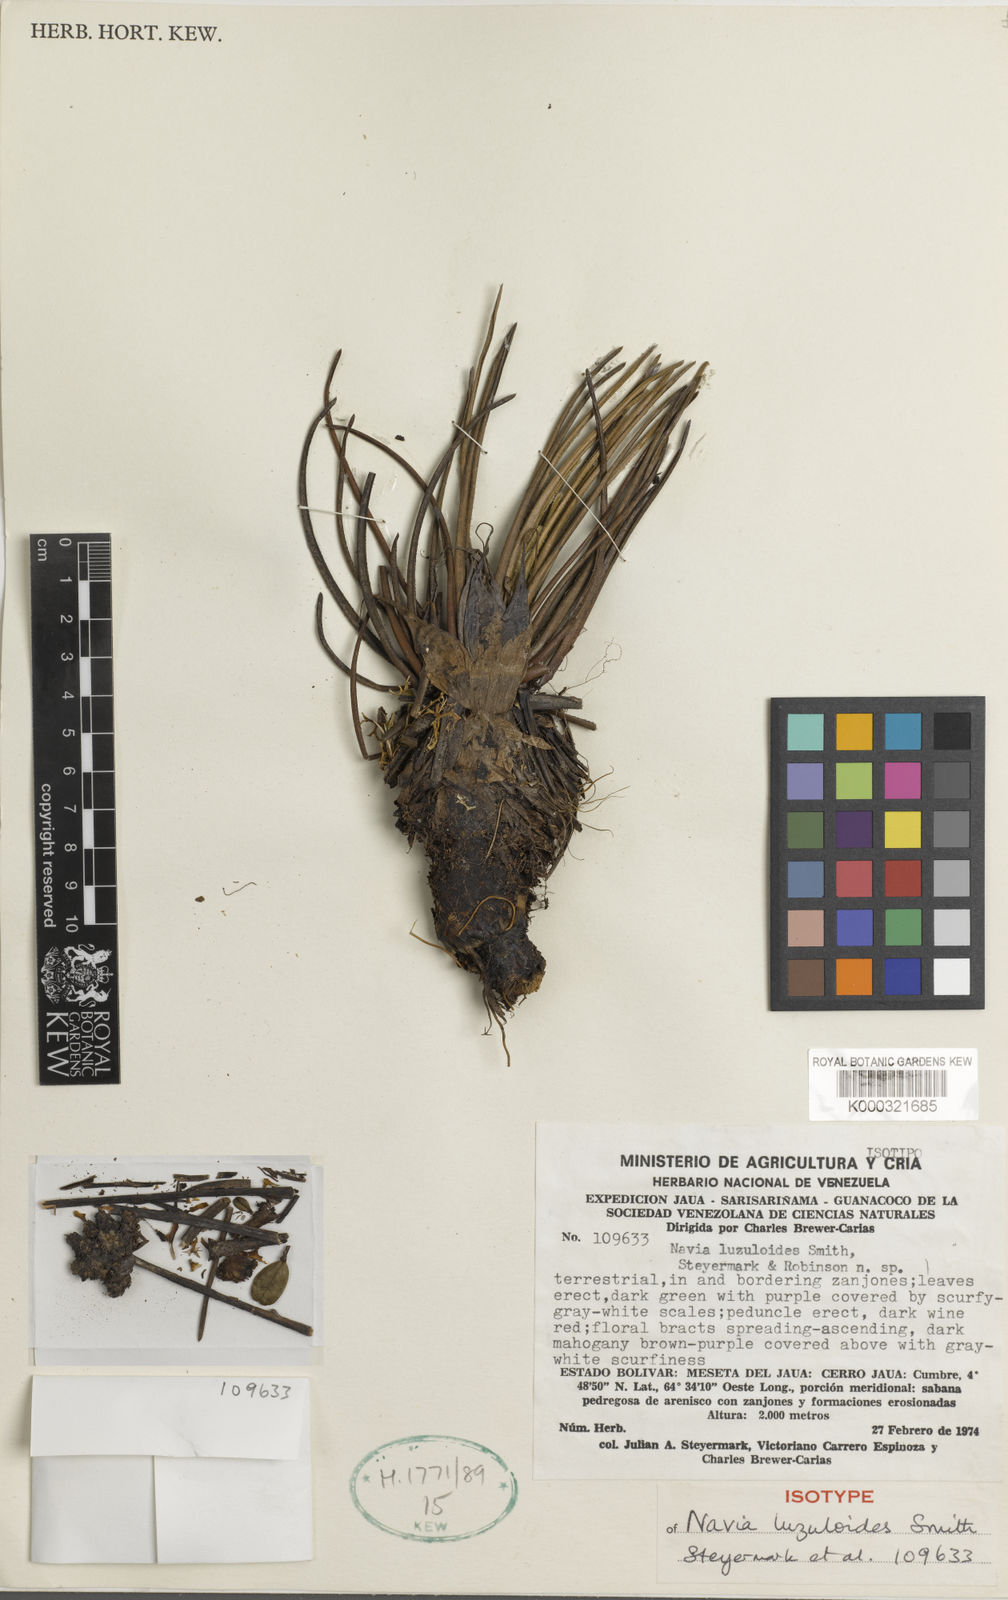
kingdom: Plantae
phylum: Tracheophyta
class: Liliopsida
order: Poales
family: Bromeliaceae
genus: Navia
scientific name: Navia luzuloides
